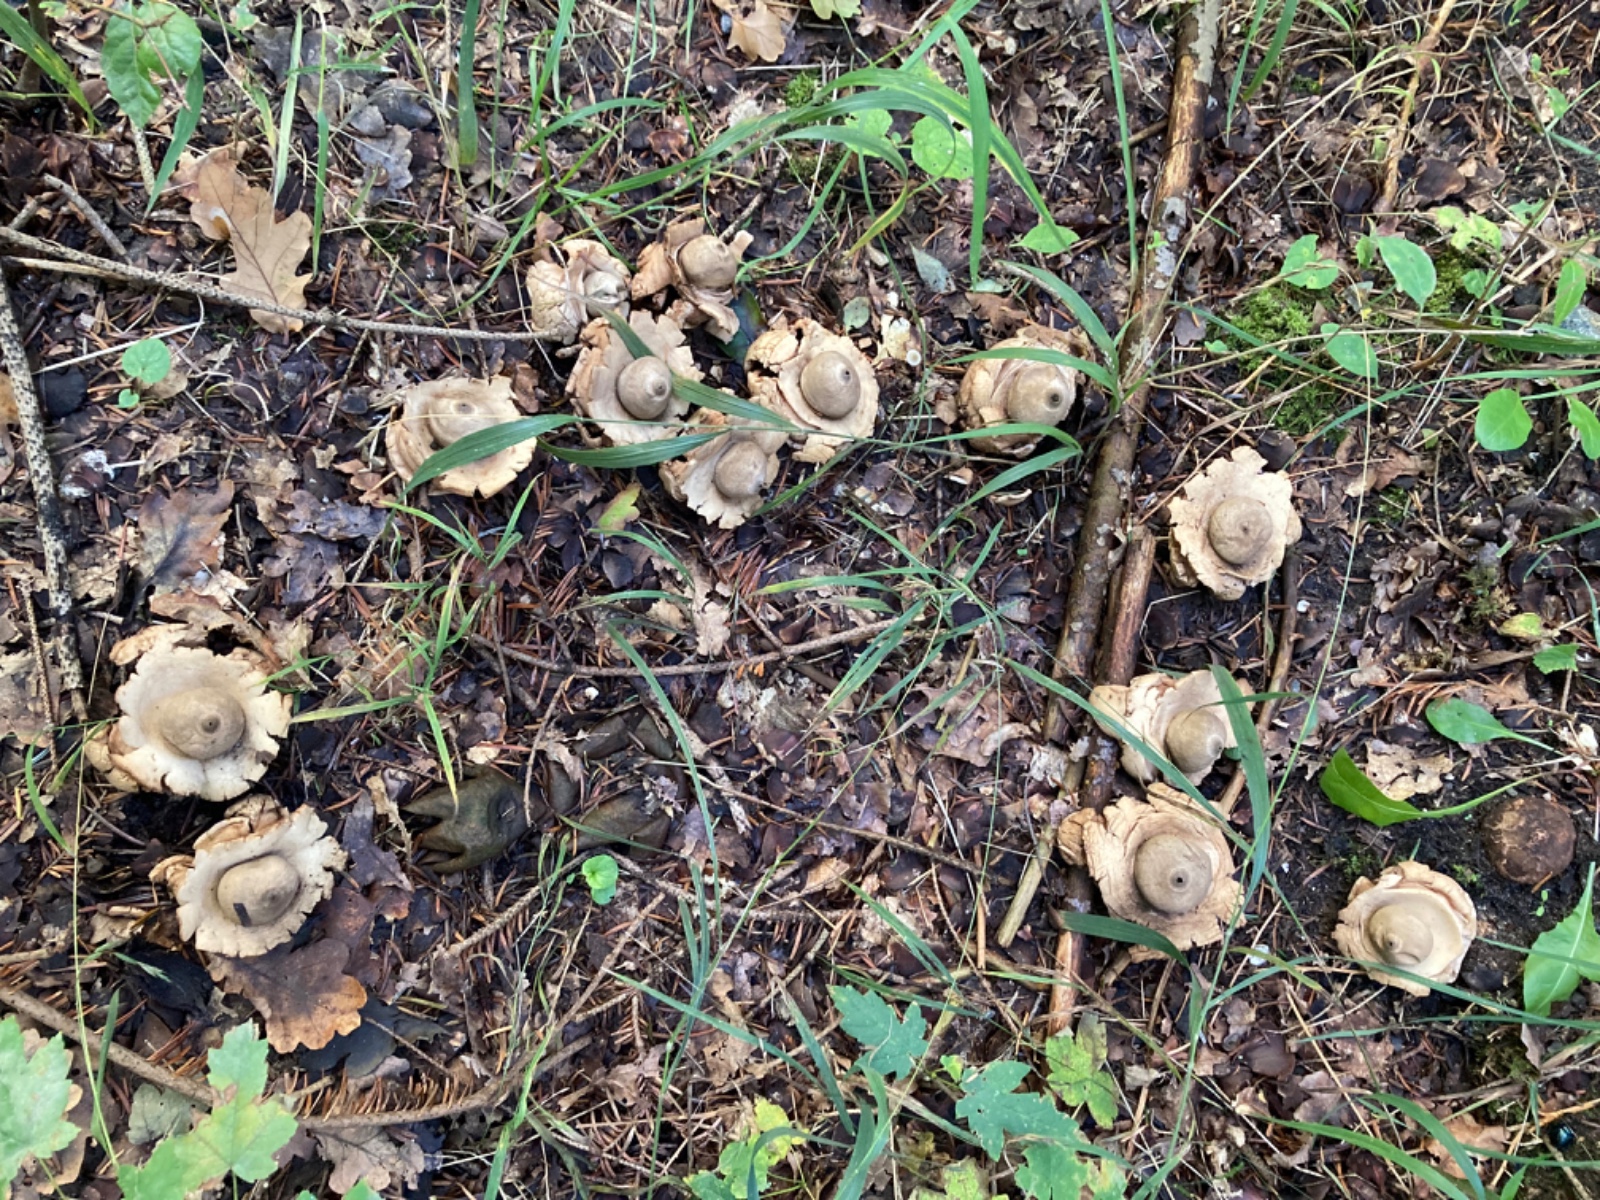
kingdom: Fungi
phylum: Basidiomycota
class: Agaricomycetes
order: Geastrales
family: Geastraceae
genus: Geastrum
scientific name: Geastrum michelianum
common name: kødet stjernebold
